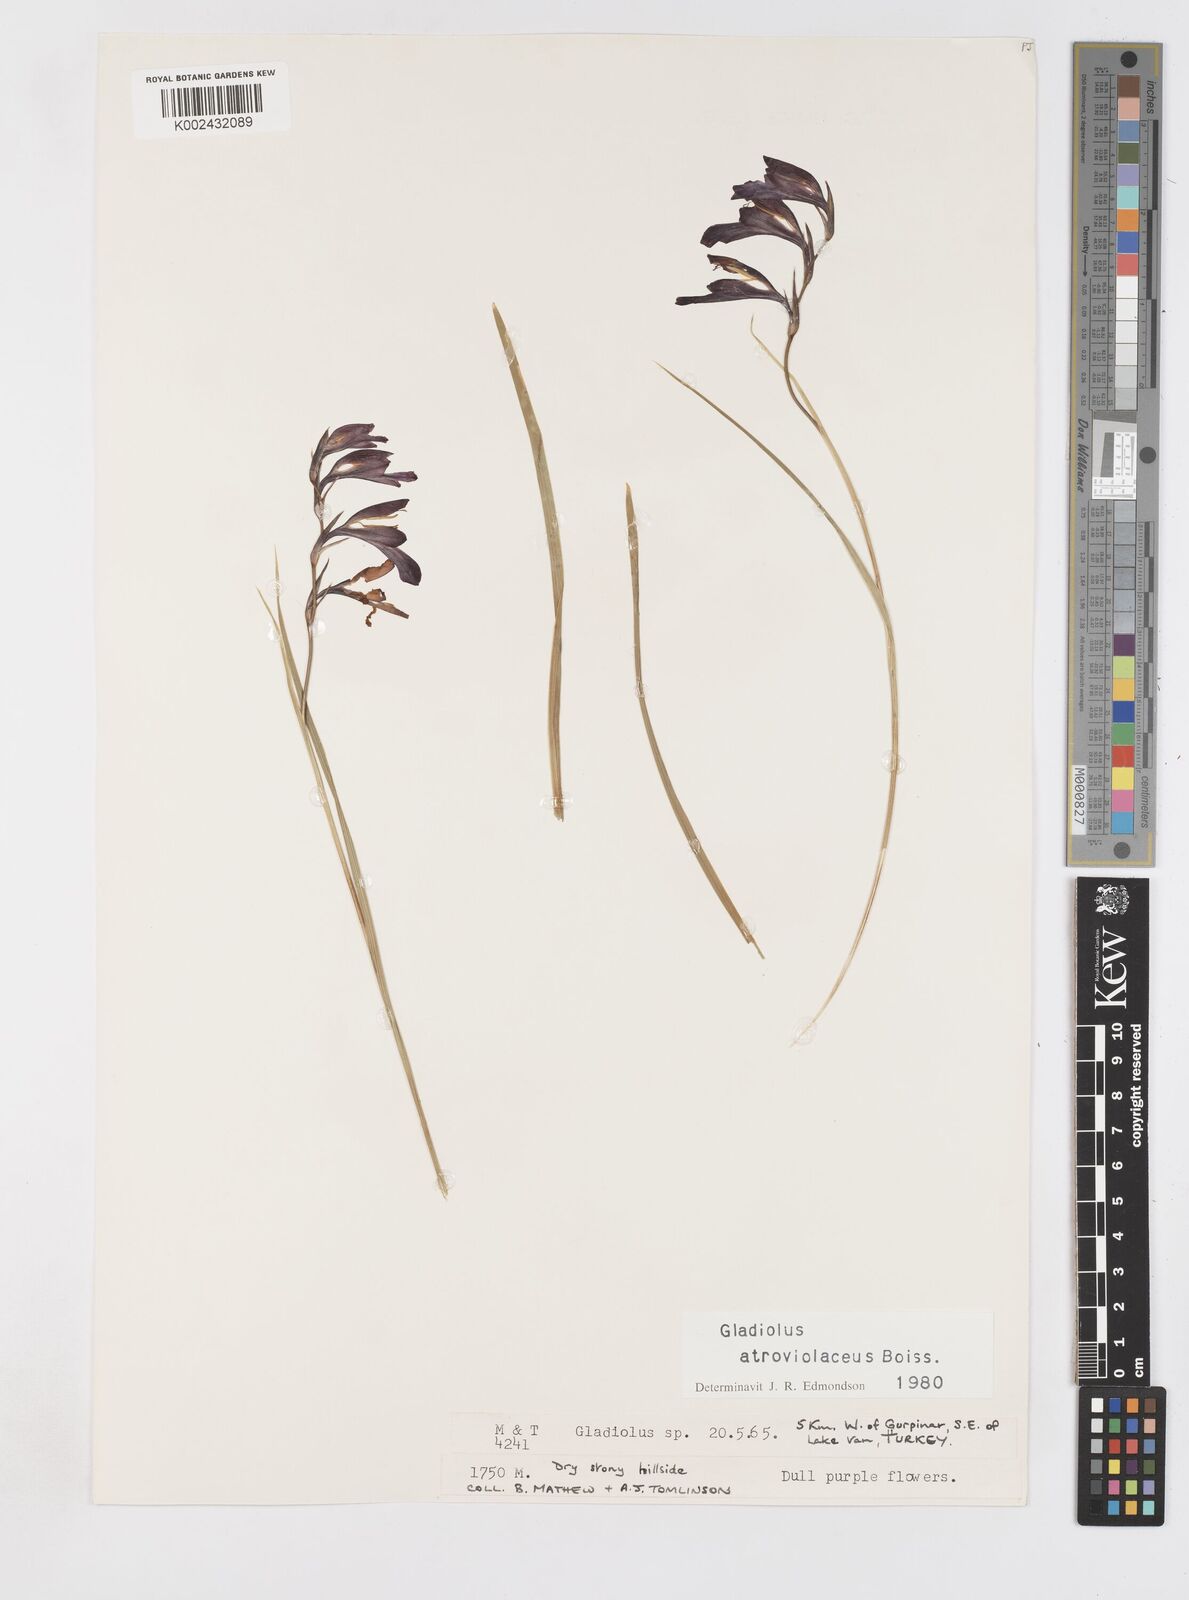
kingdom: Plantae
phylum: Tracheophyta
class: Liliopsida
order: Asparagales
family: Iridaceae
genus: Gladiolus
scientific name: Gladiolus atroviolaceus
